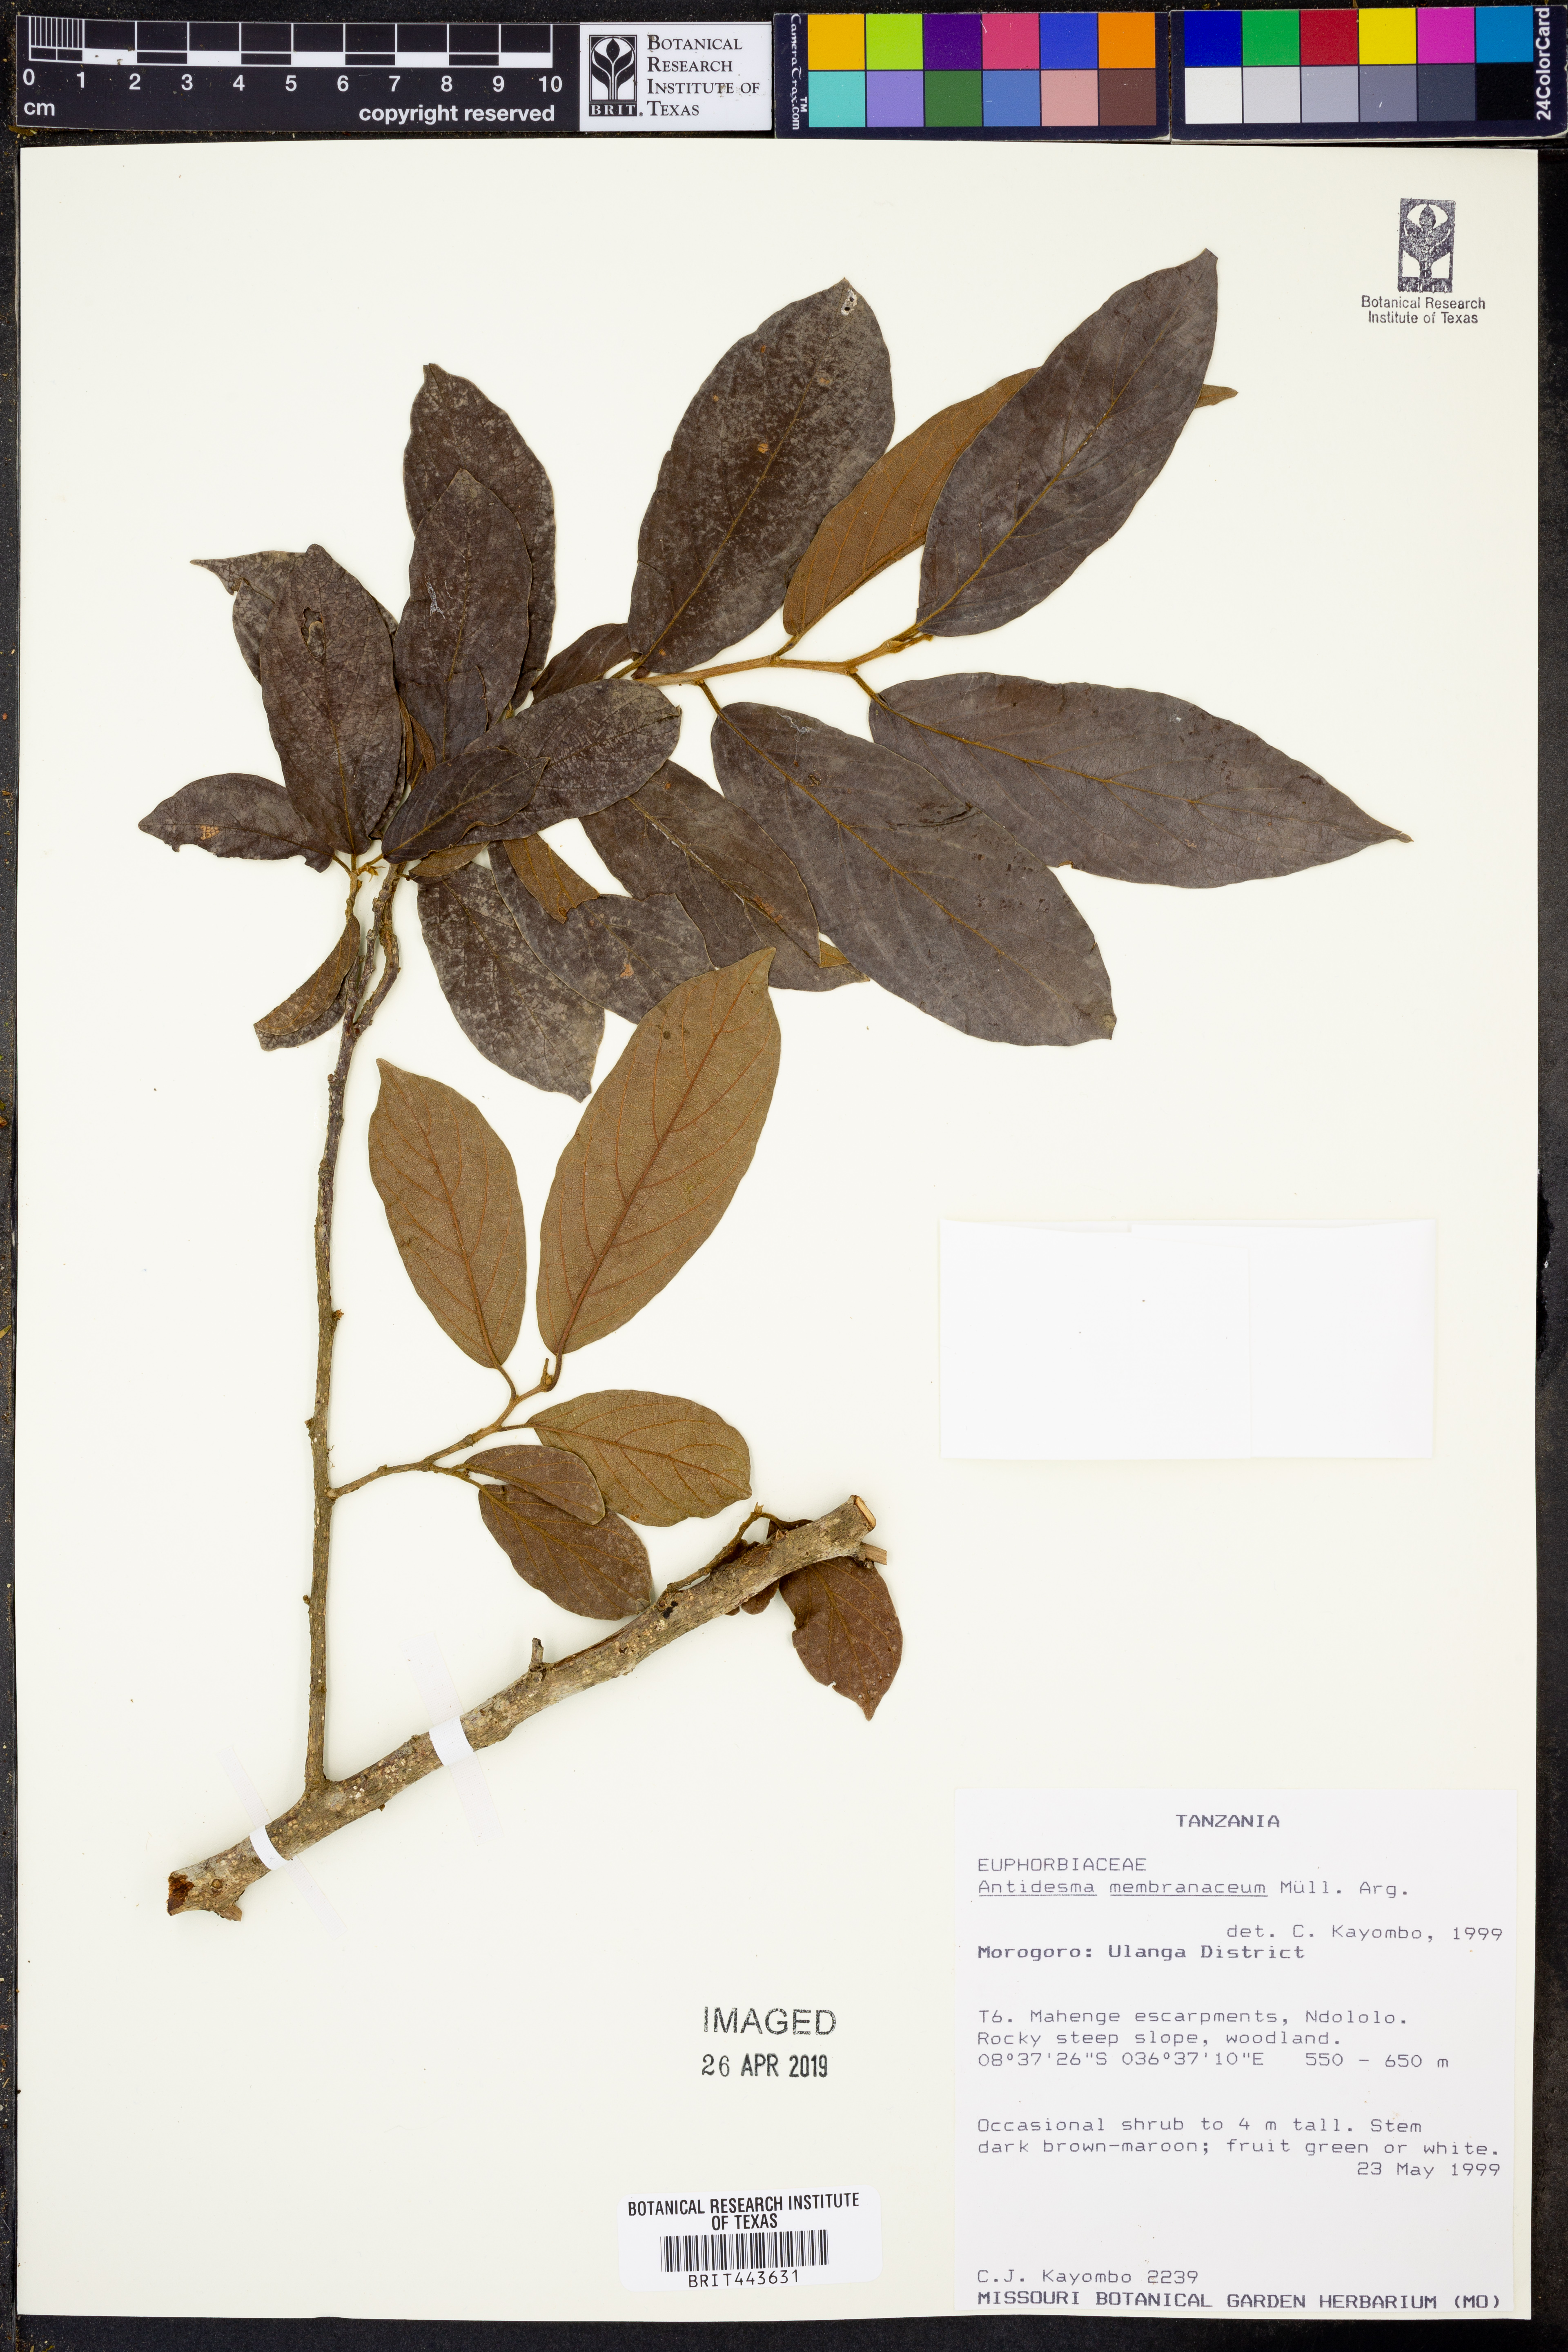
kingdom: Plantae
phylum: Tracheophyta
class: Magnoliopsida
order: Malpighiales
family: Phyllanthaceae
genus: Antidesma
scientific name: Antidesma membranaceum
